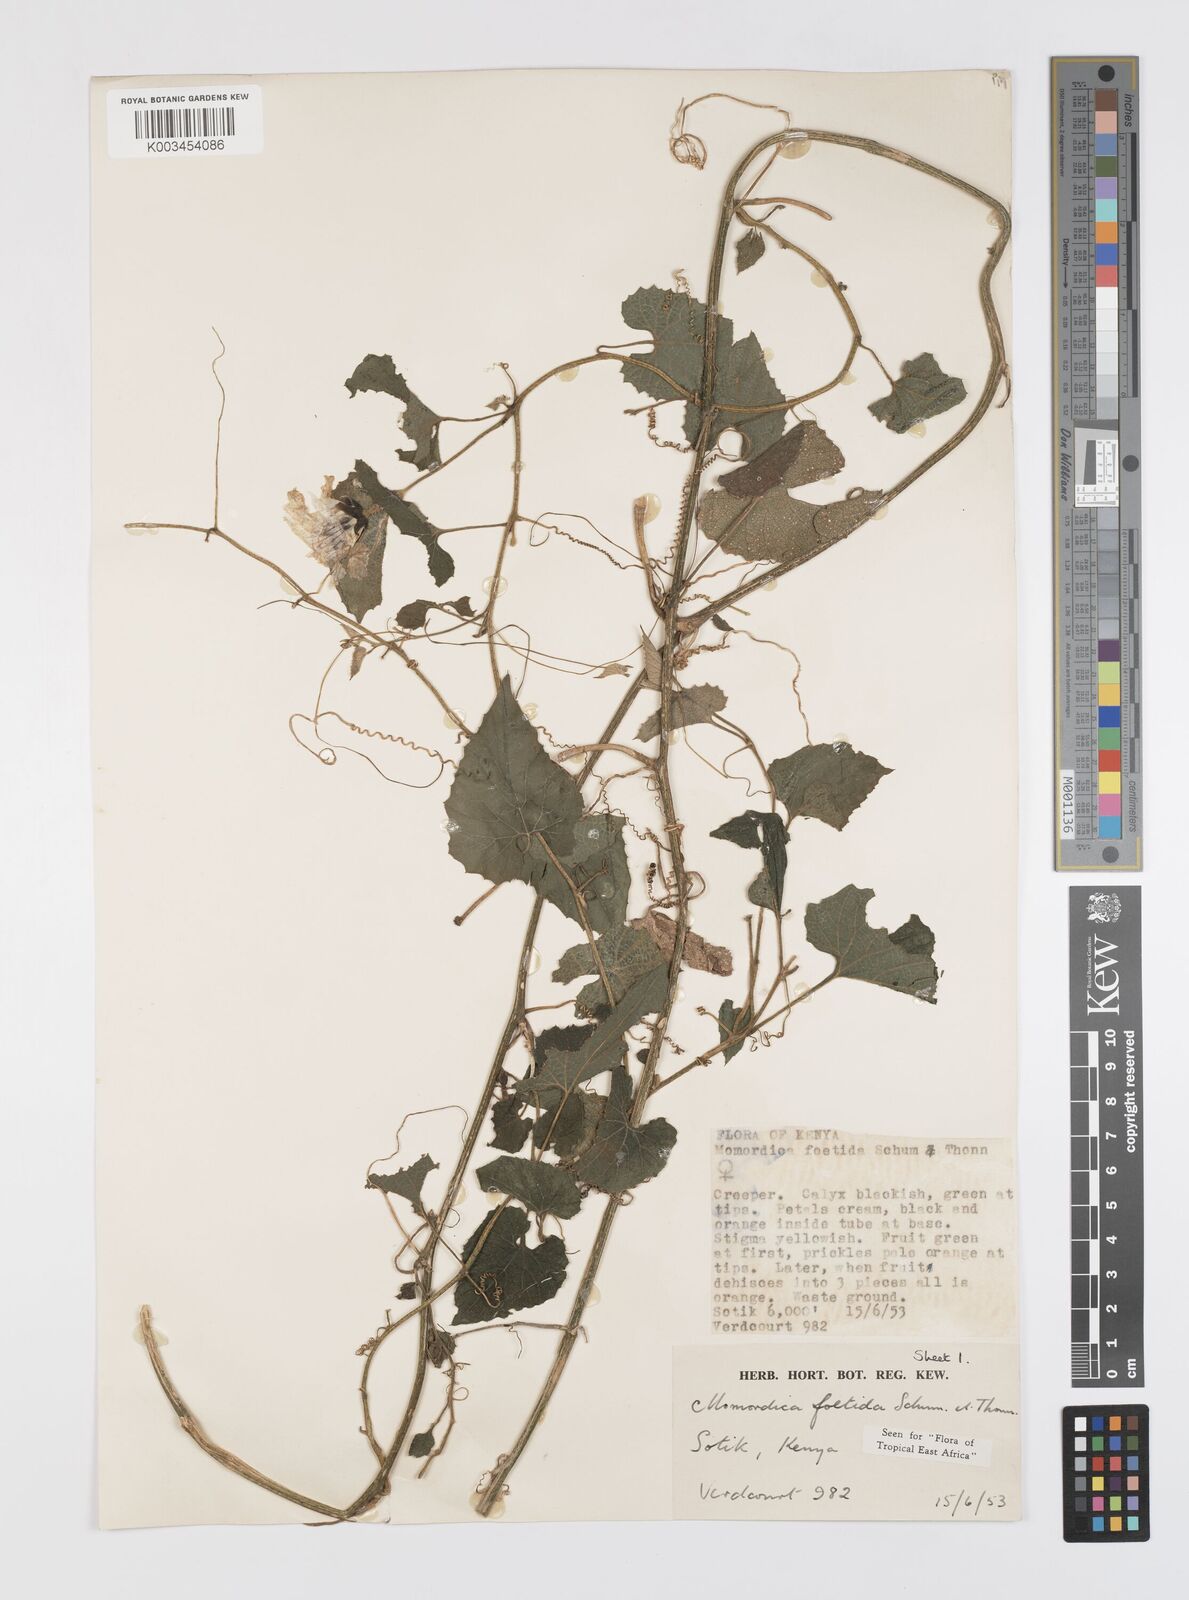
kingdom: Plantae
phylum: Tracheophyta
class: Magnoliopsida
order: Cucurbitales
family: Cucurbitaceae
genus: Momordica
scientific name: Momordica foetida
